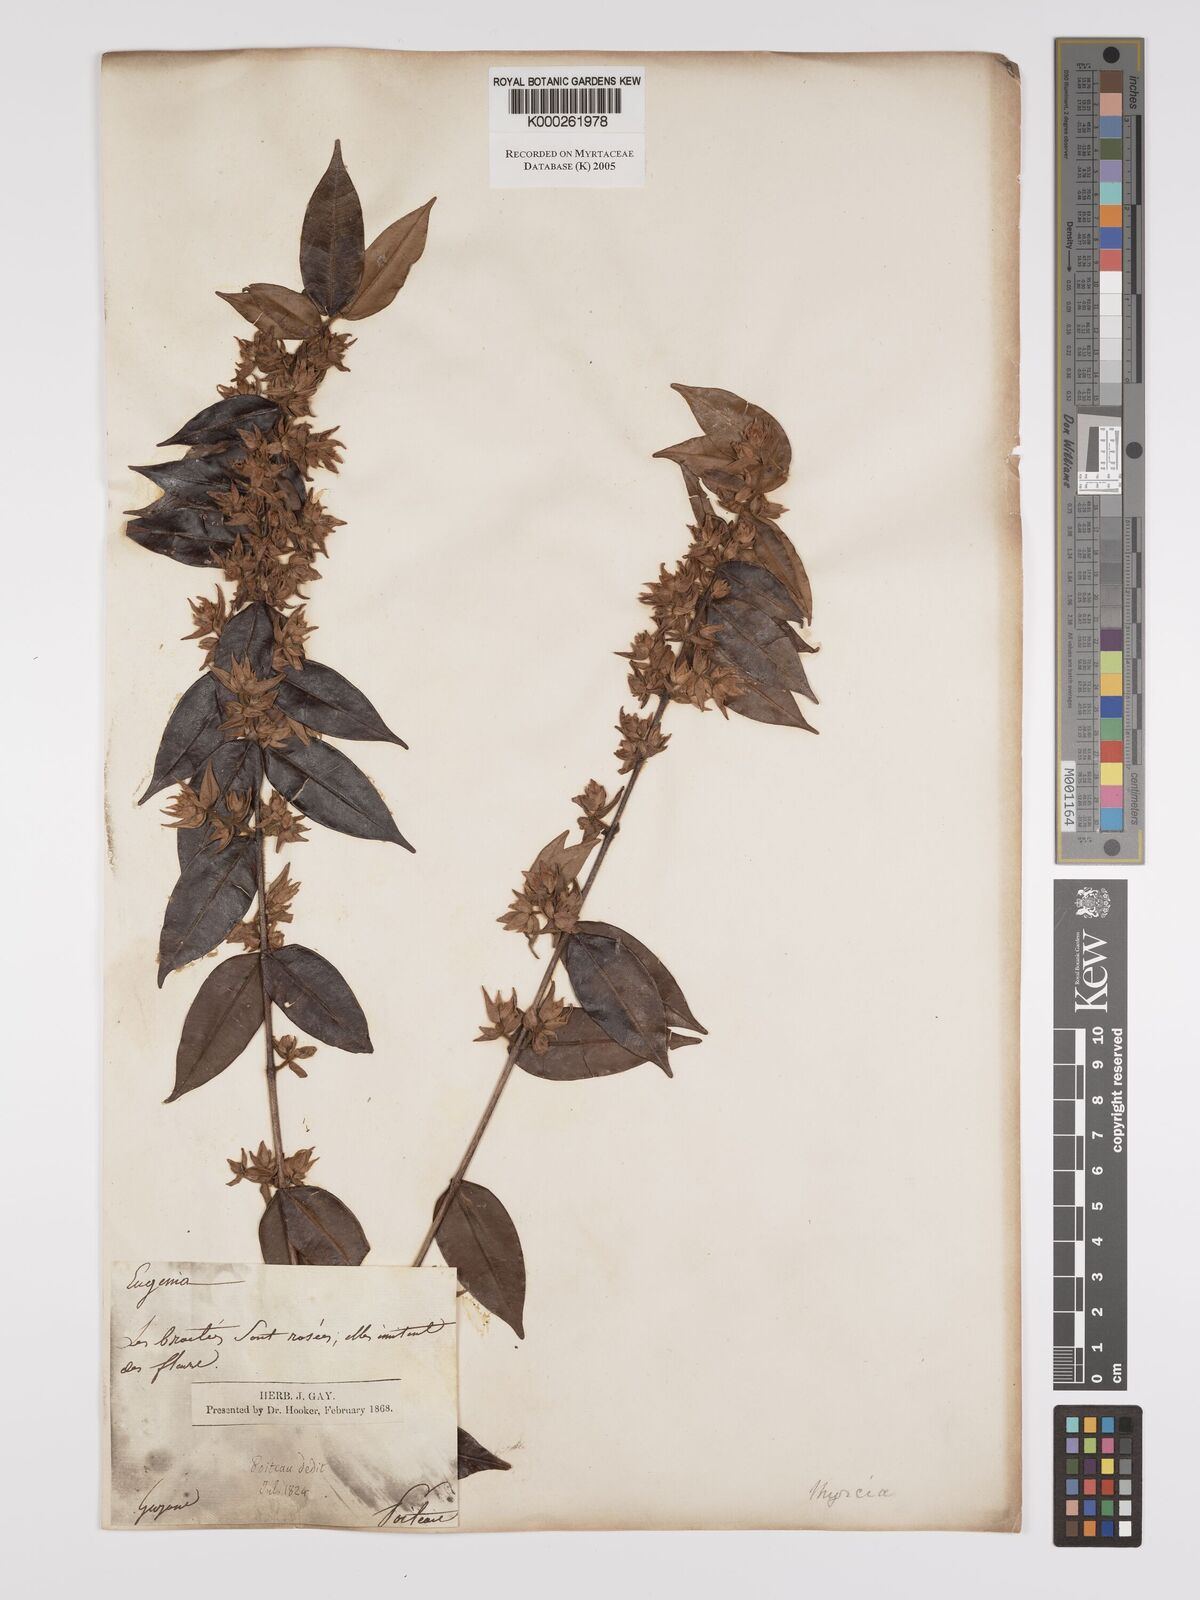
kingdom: Plantae
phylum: Tracheophyta
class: Magnoliopsida
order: Myrtales
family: Myrtaceae
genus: Myrcia
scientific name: Myrcia bracteata
